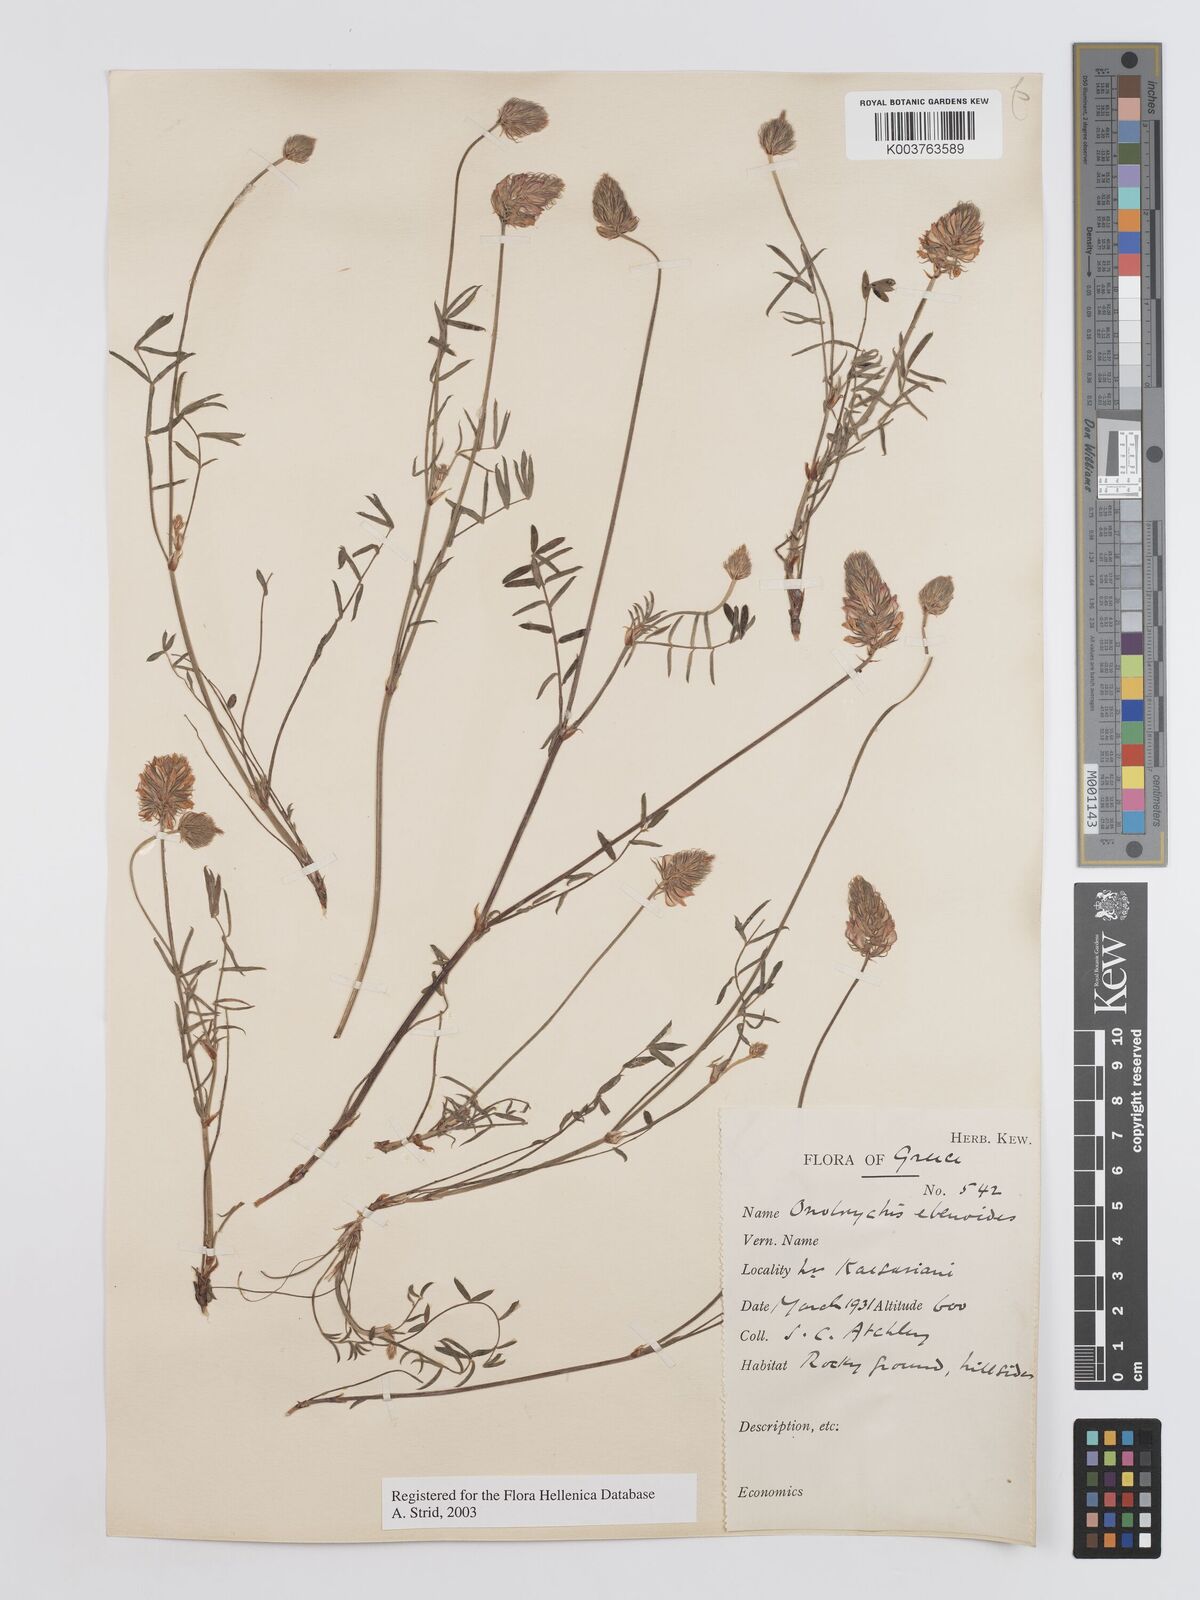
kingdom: Plantae
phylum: Tracheophyta
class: Magnoliopsida
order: Fabales
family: Fabaceae
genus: Onobrychis
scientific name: Onobrychis ebenoides
